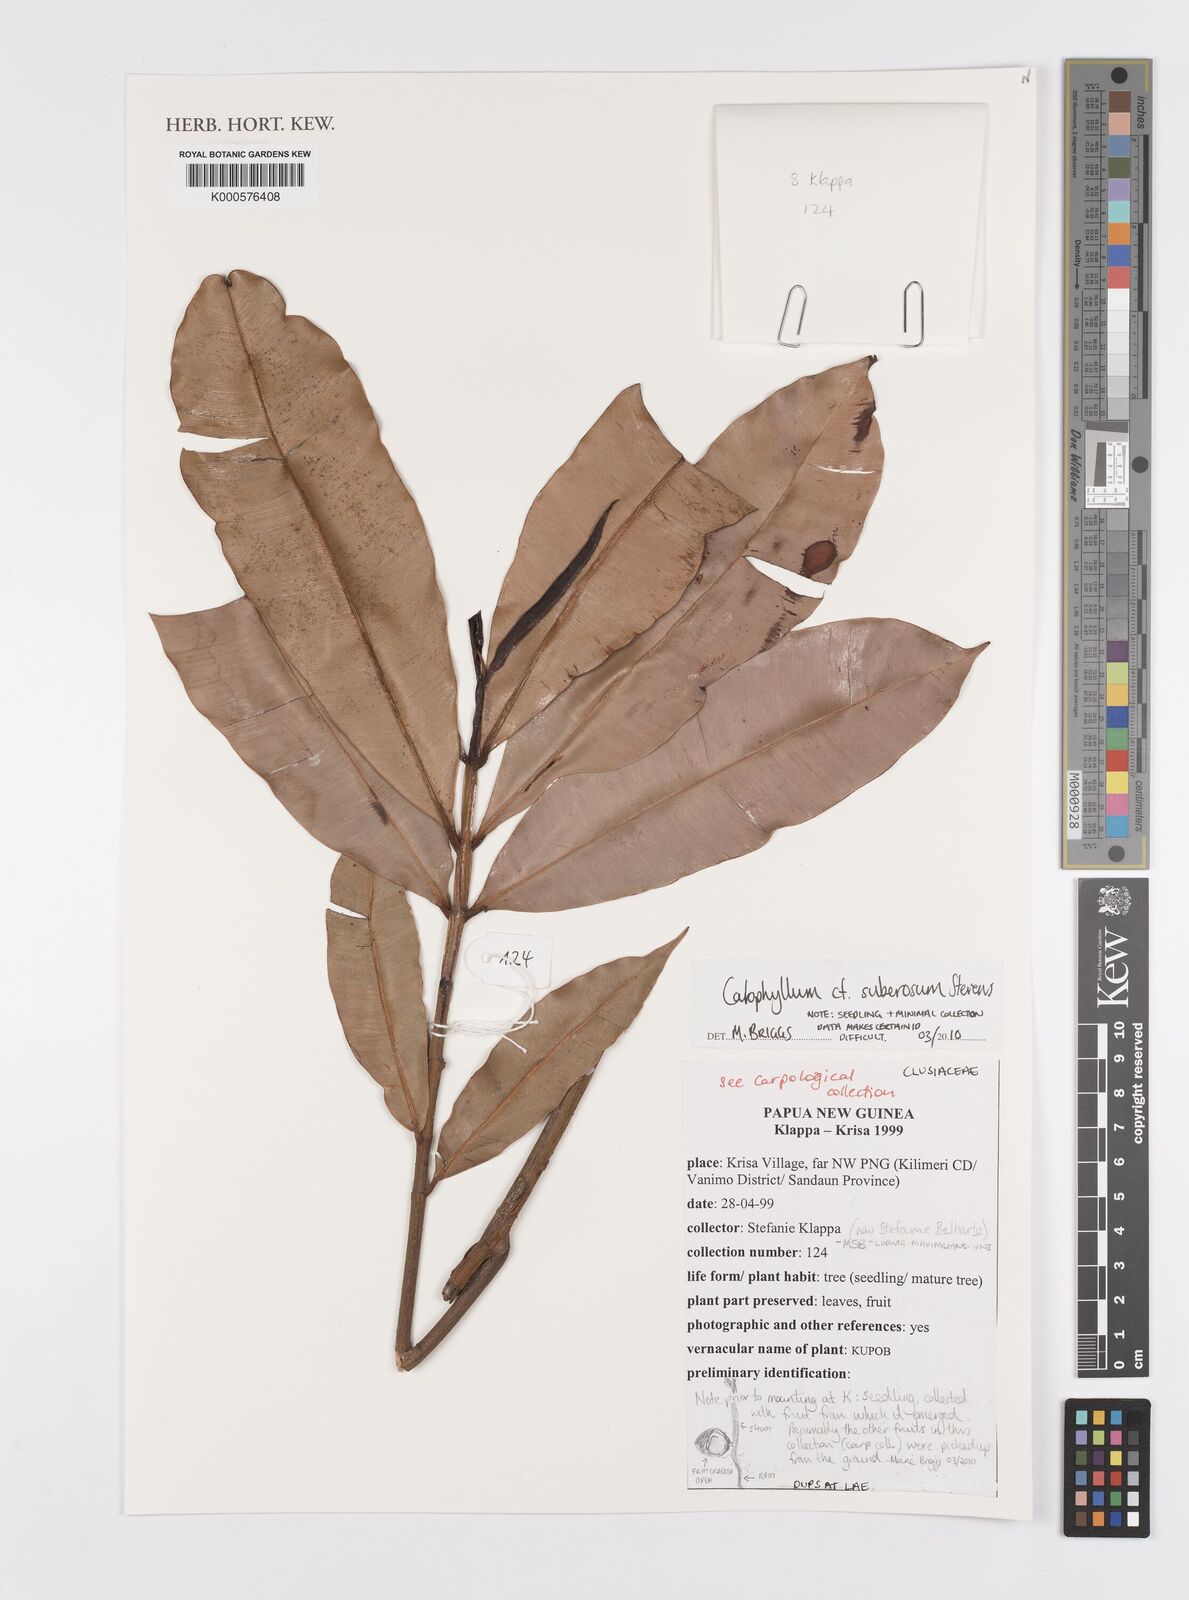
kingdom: Plantae
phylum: Tracheophyta
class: Magnoliopsida
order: Malpighiales
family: Calophyllaceae
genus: Calophyllum
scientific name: Calophyllum suberosum
